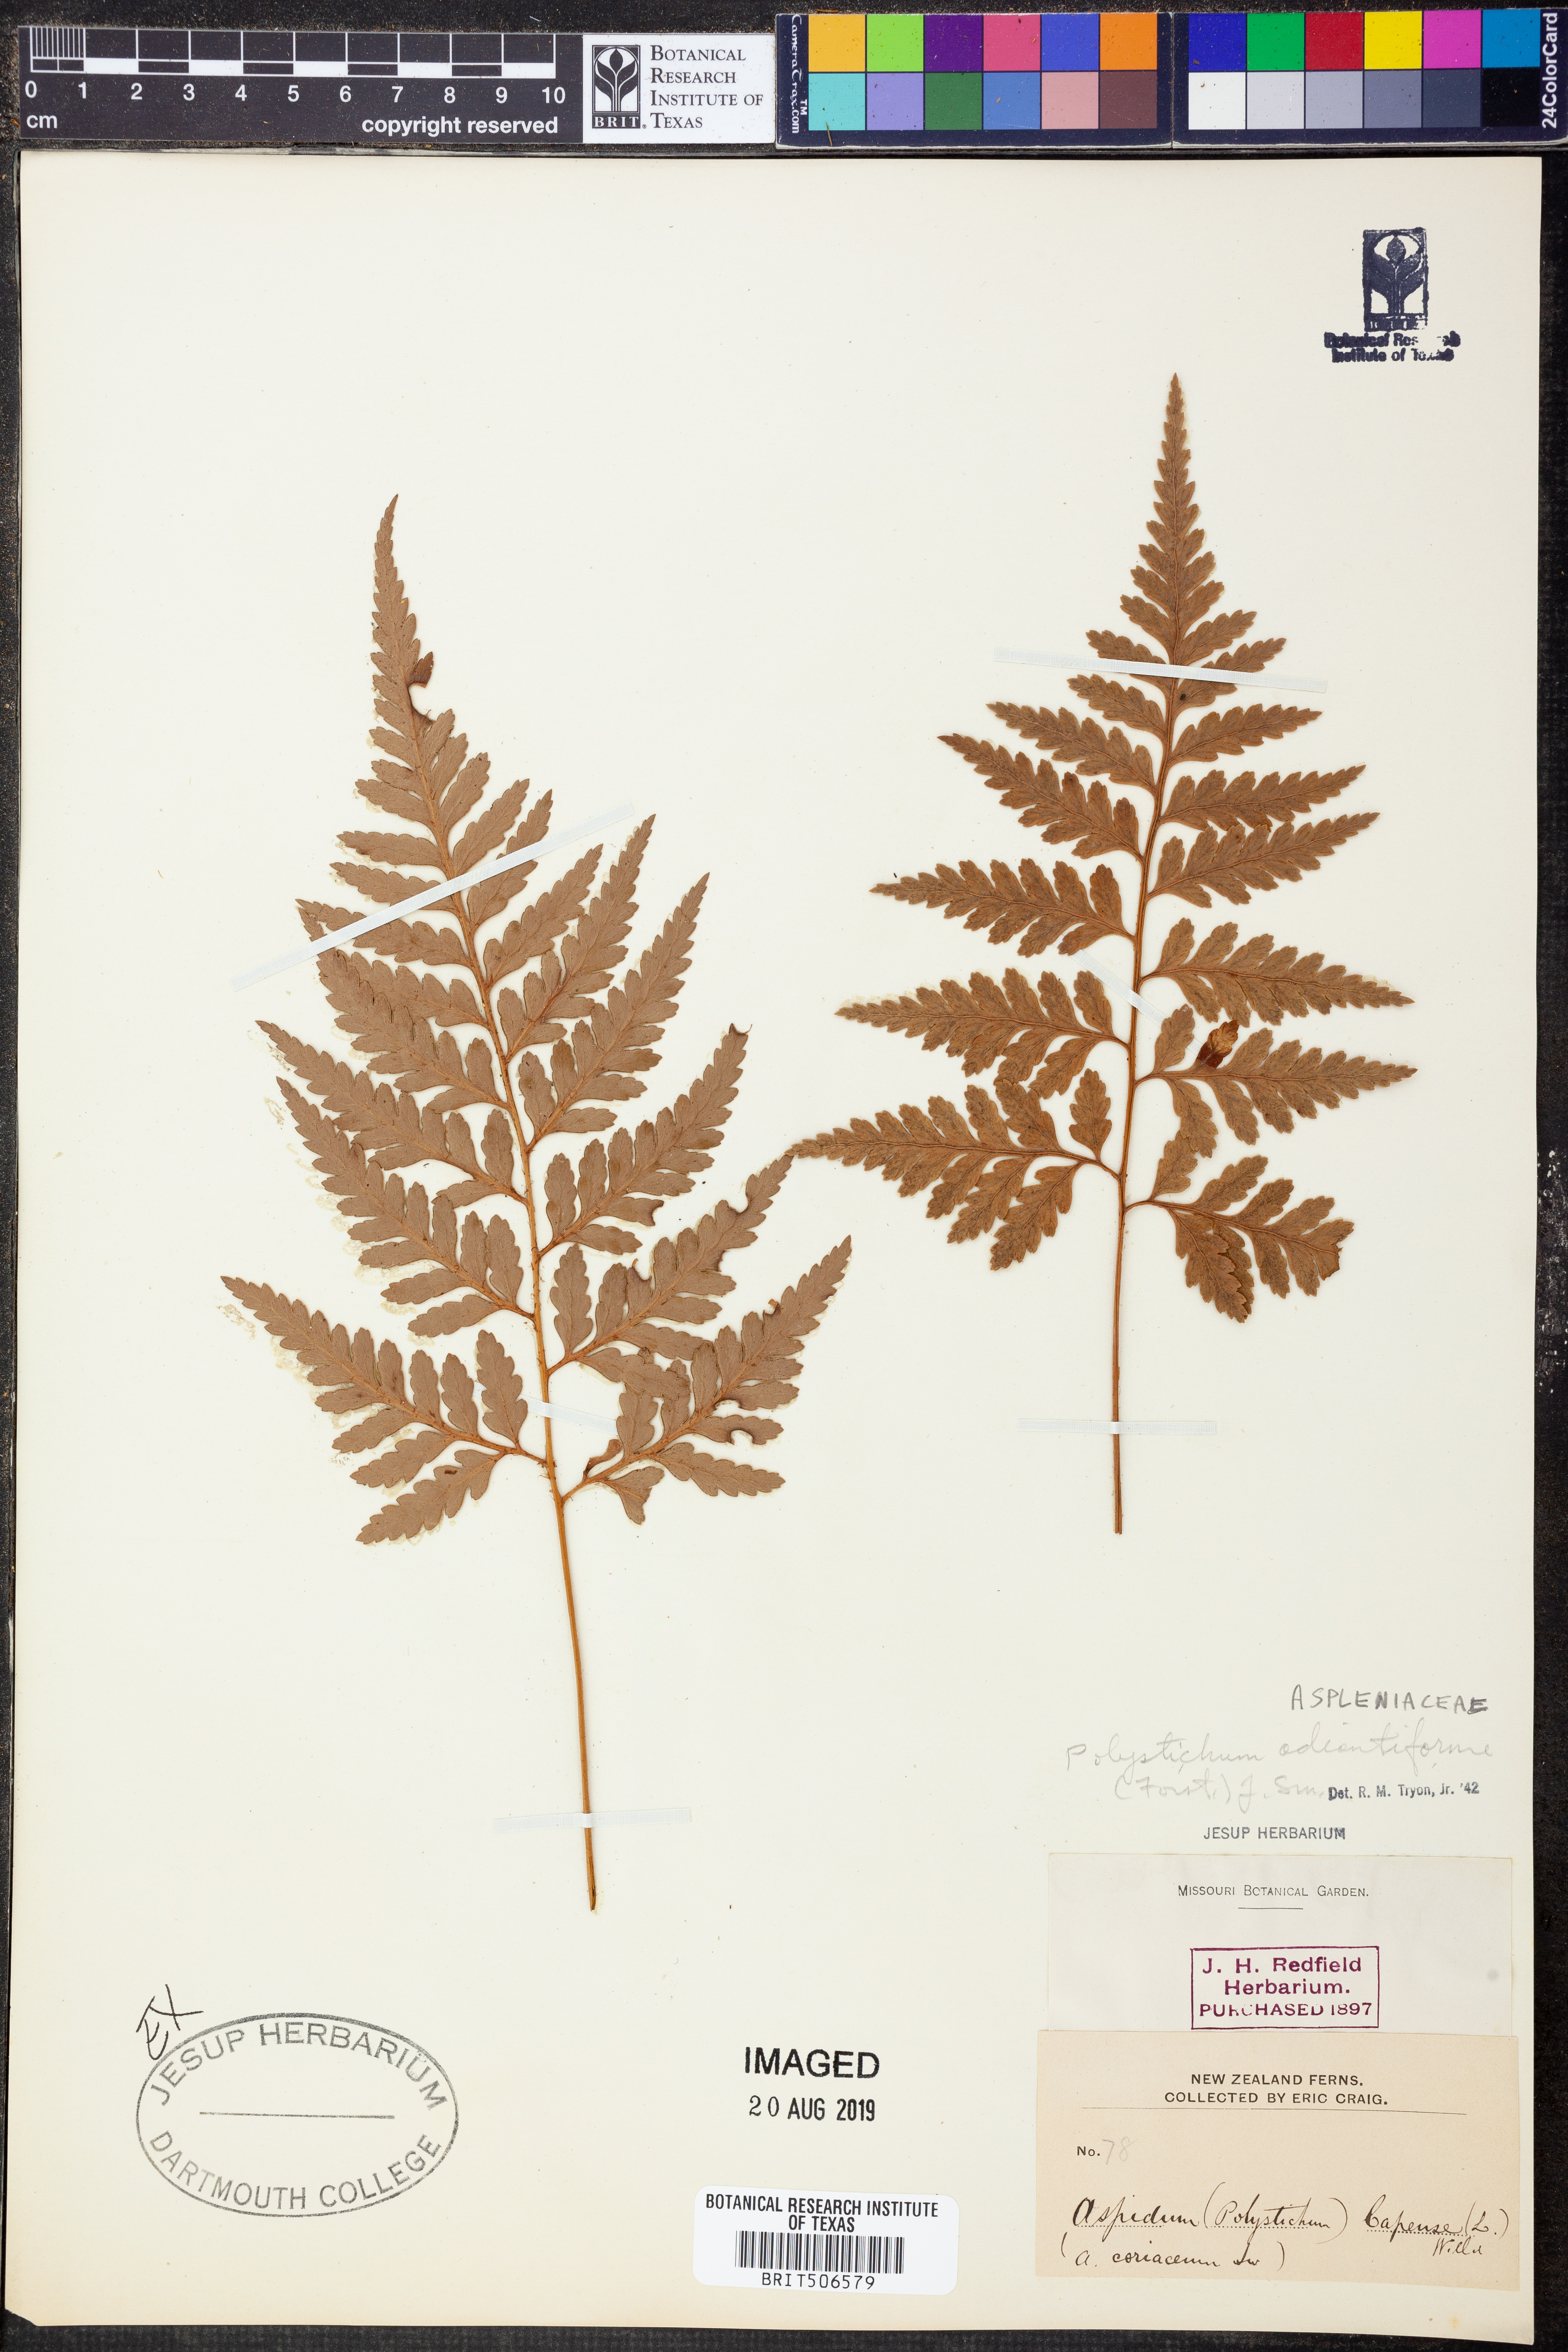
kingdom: Plantae
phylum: Tracheophyta
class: Polypodiopsida
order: Polypodiales
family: Dryopteridaceae
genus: Rumohra
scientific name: Rumohra adiantiformis
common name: Leather fern
